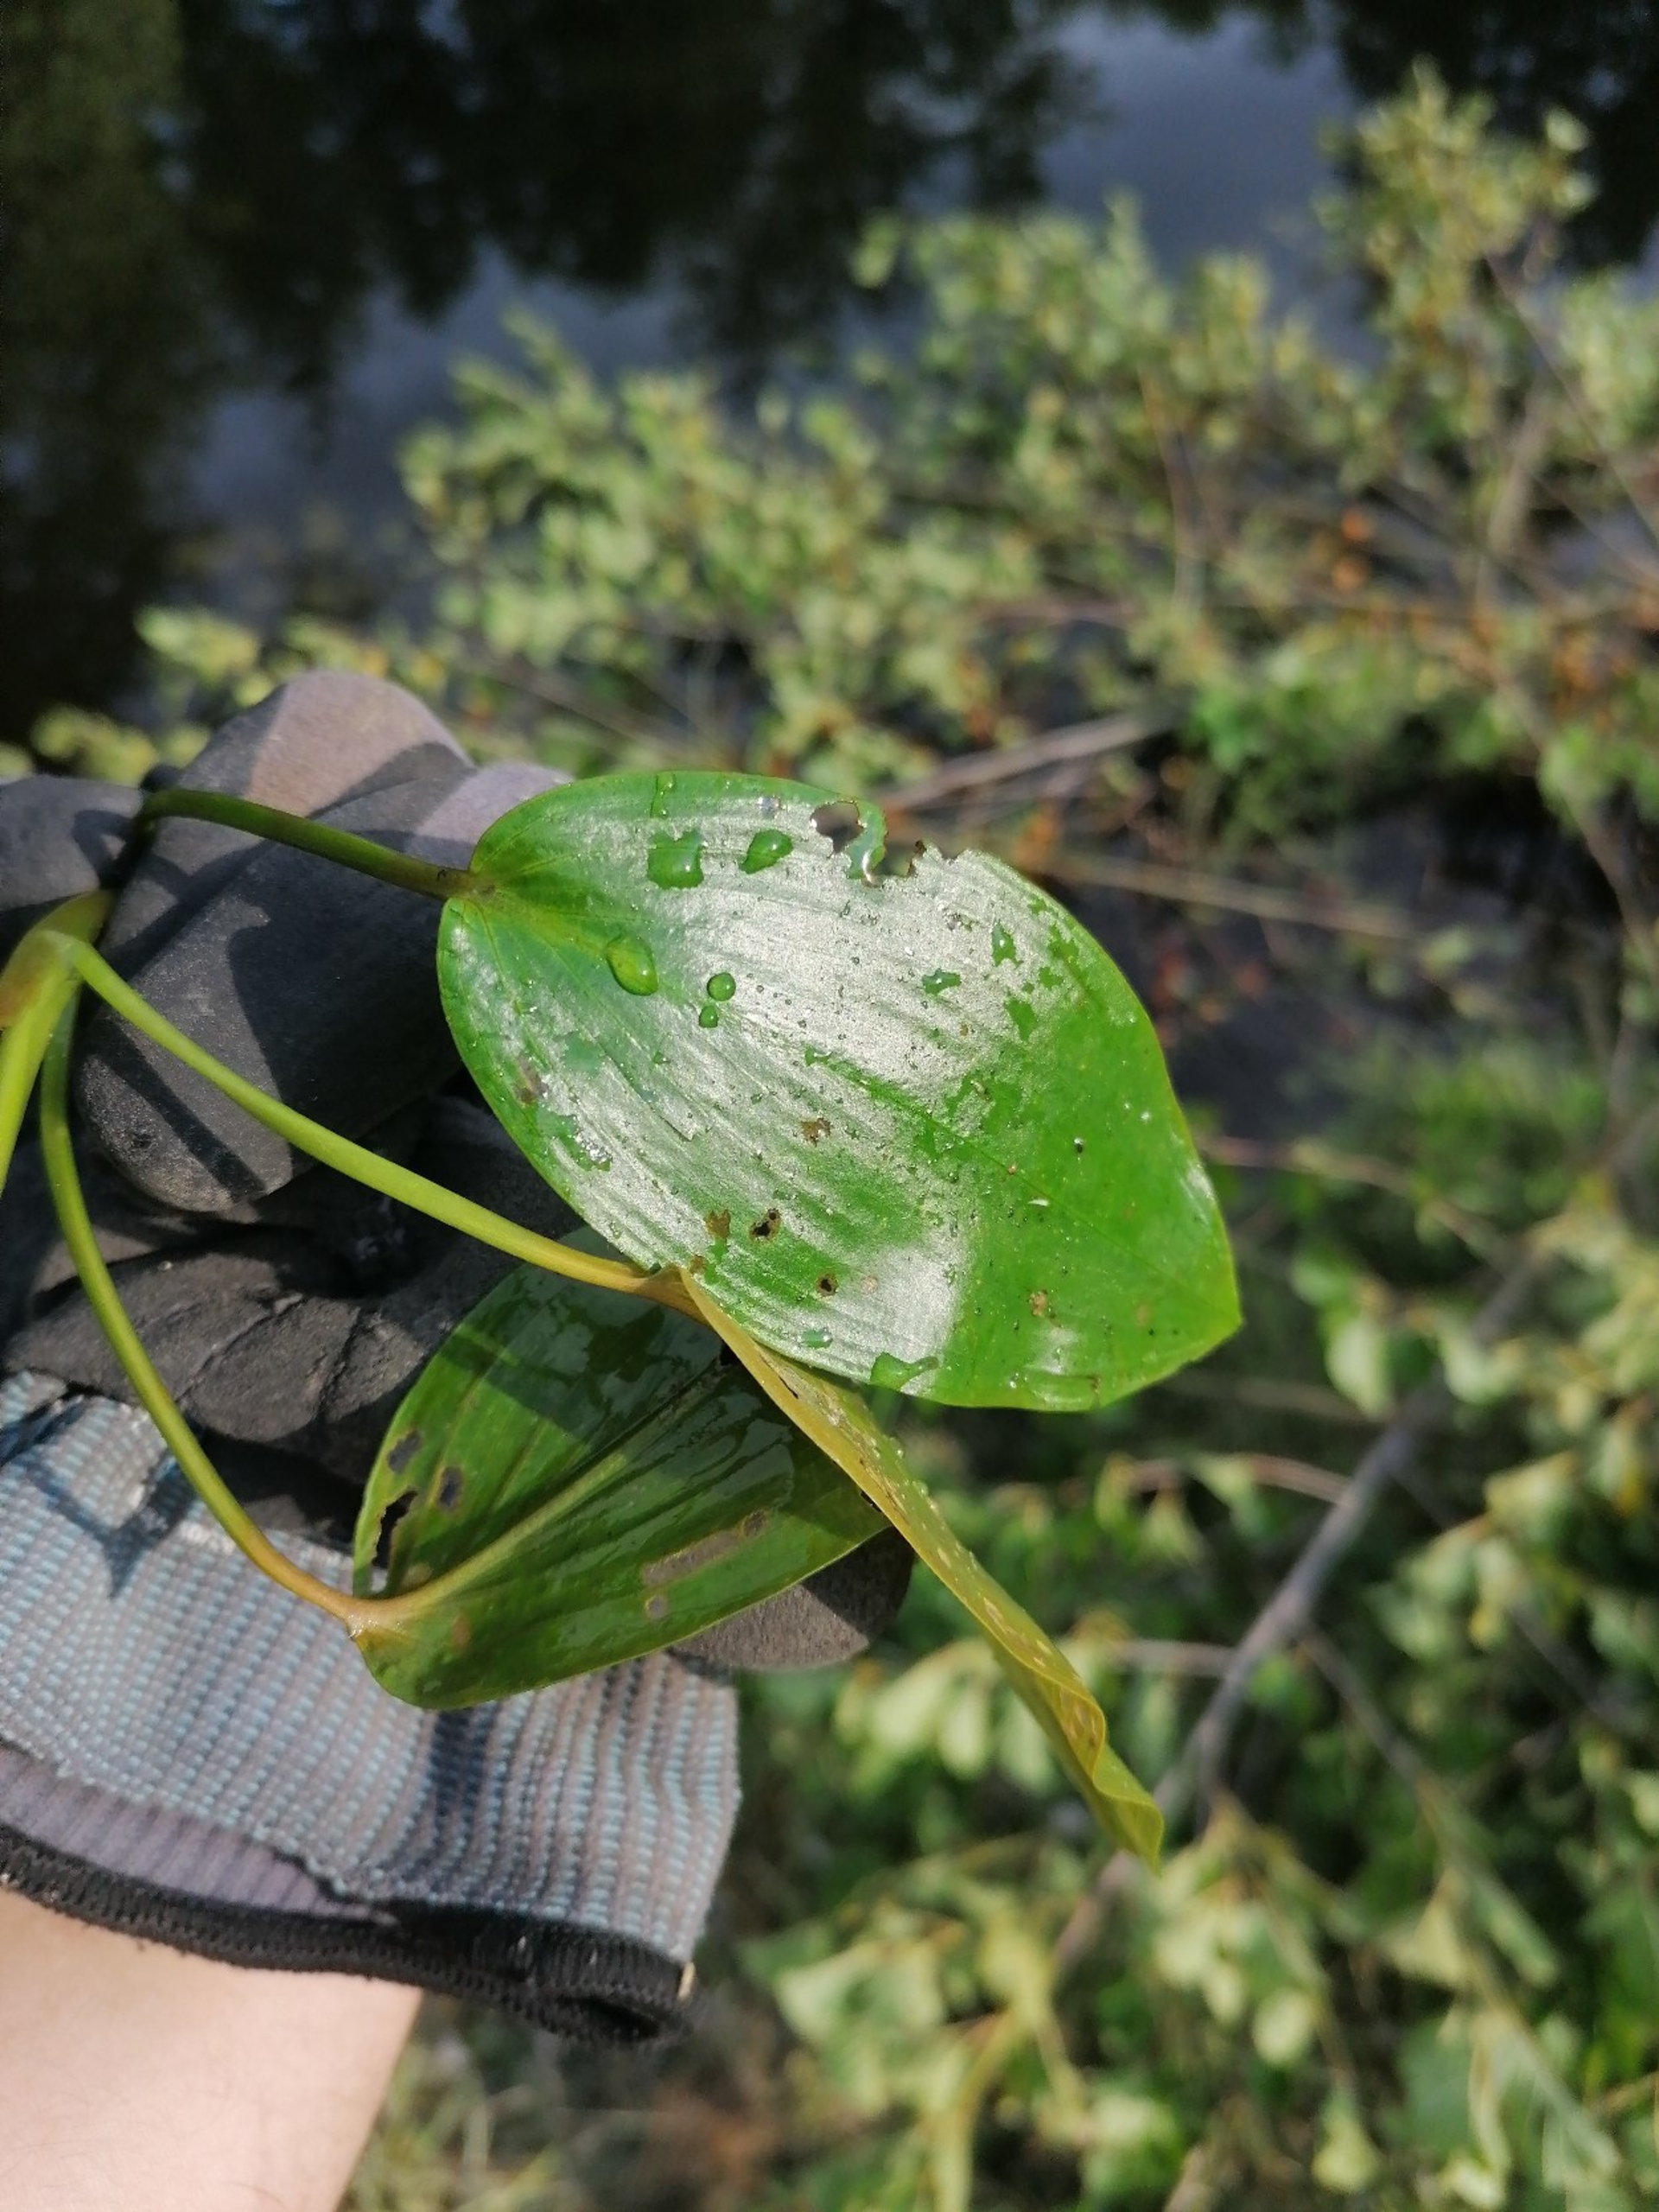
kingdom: Plantae
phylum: Tracheophyta
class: Liliopsida
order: Alismatales
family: Potamogetonaceae
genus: Potamogeton
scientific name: Potamogeton natans
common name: Svømmende vandaks
